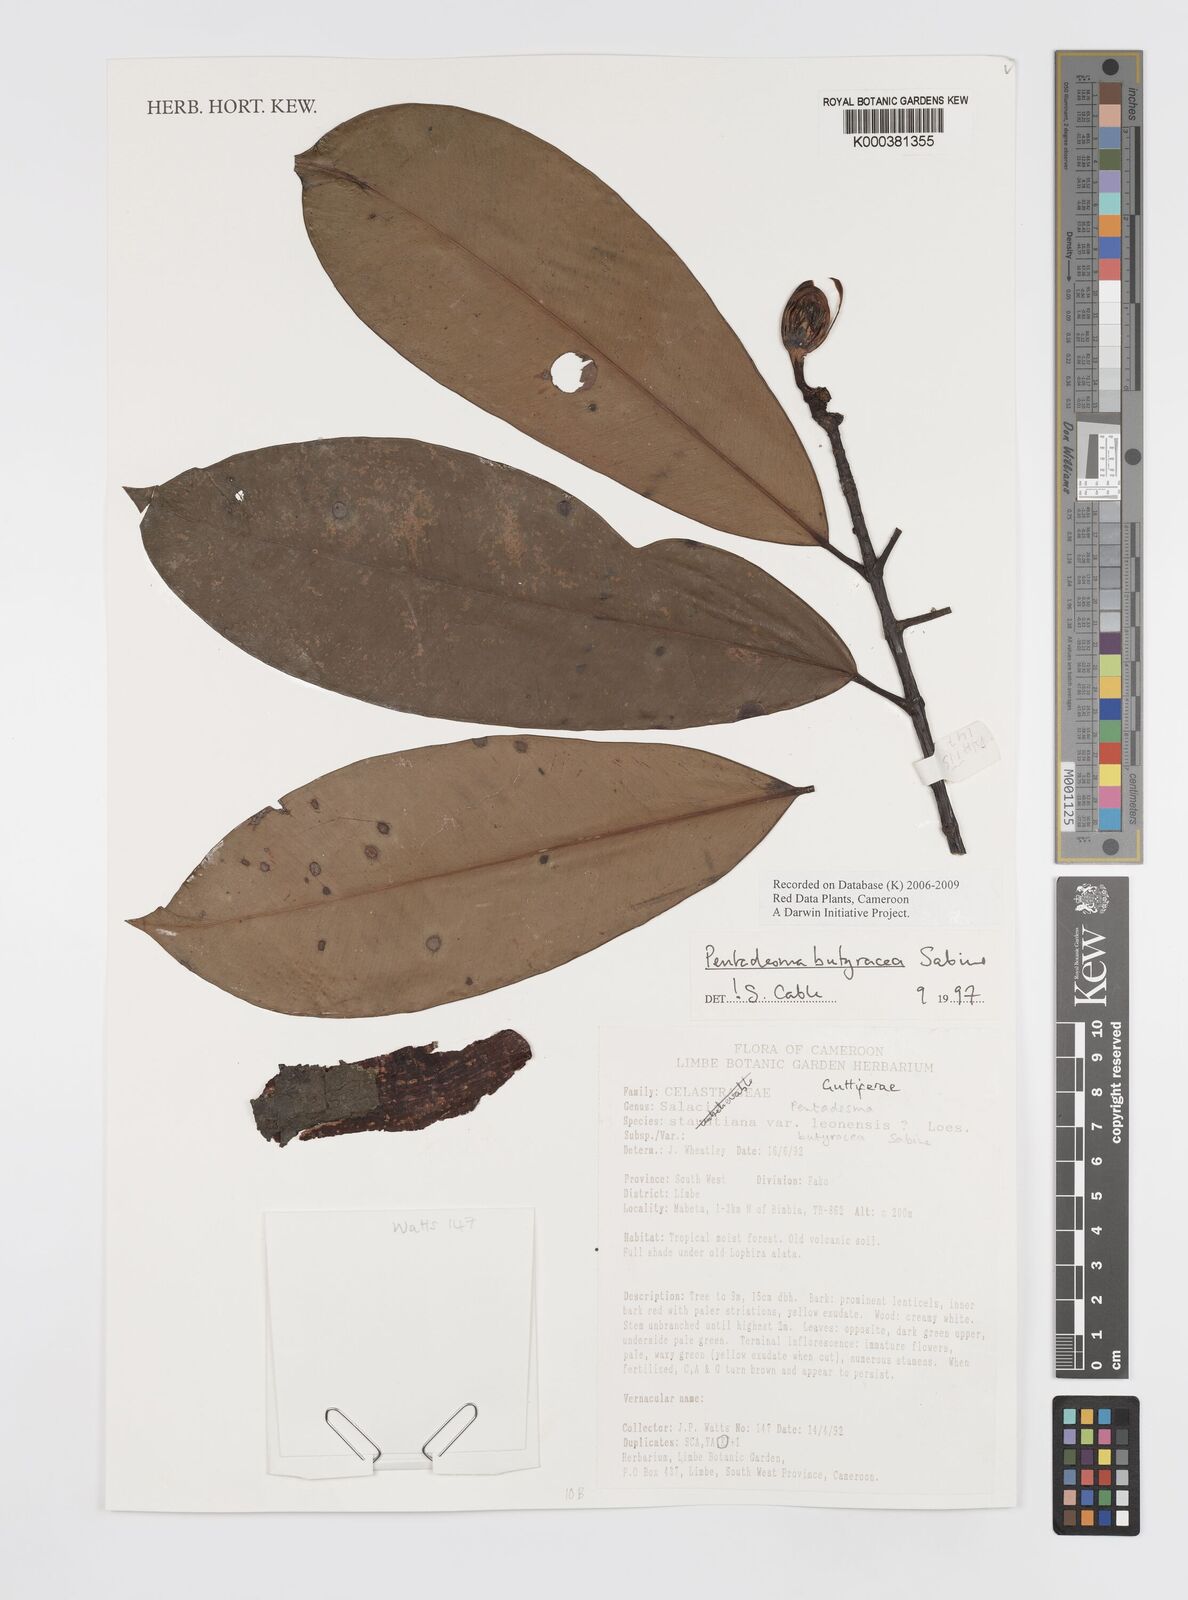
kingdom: Plantae
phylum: Tracheophyta
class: Magnoliopsida
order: Malpighiales
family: Clusiaceae
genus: Pentadesma
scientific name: Pentadesma butyracea
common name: Buttertree
